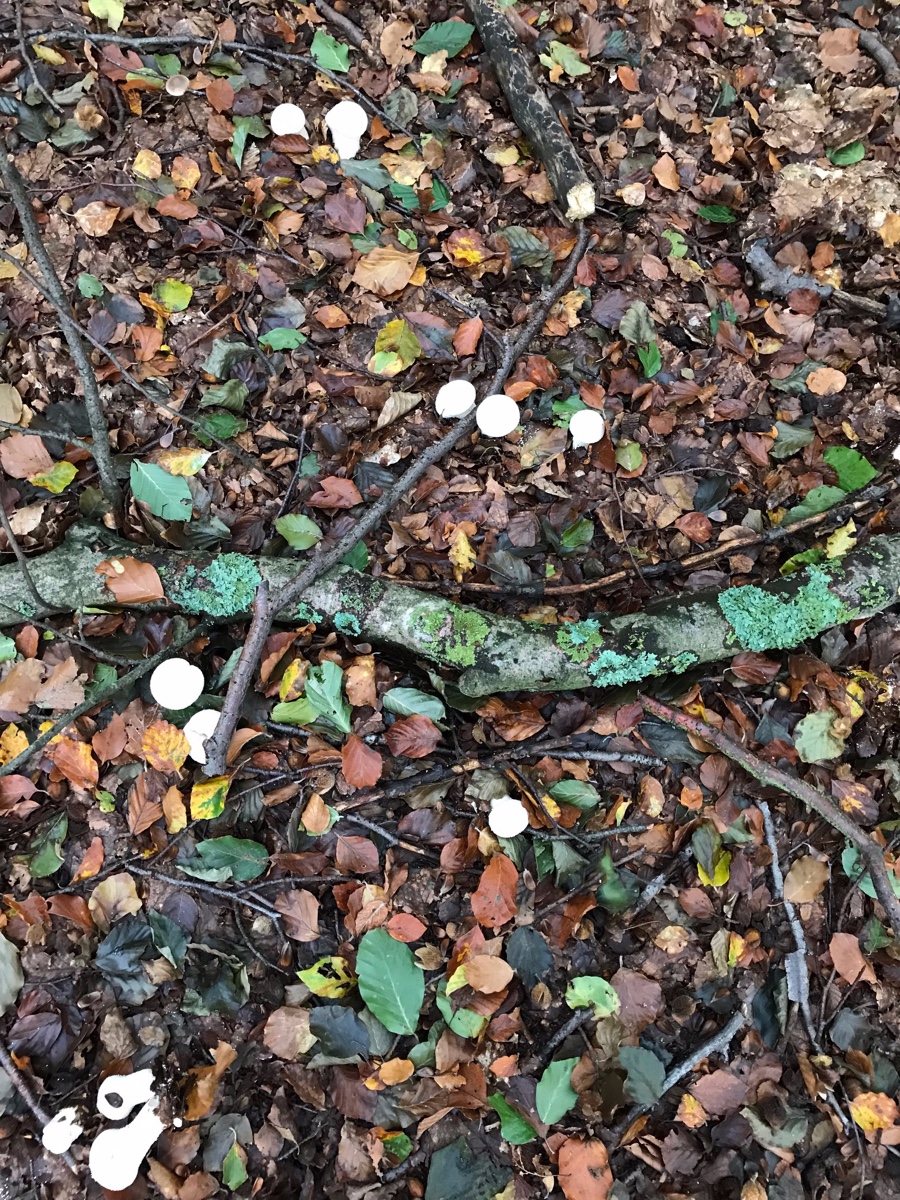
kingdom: Fungi
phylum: Basidiomycota
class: Agaricomycetes
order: Agaricales
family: Lycoperdaceae
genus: Lycoperdon
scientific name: Lycoperdon perlatum
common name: krystal-støvbold
